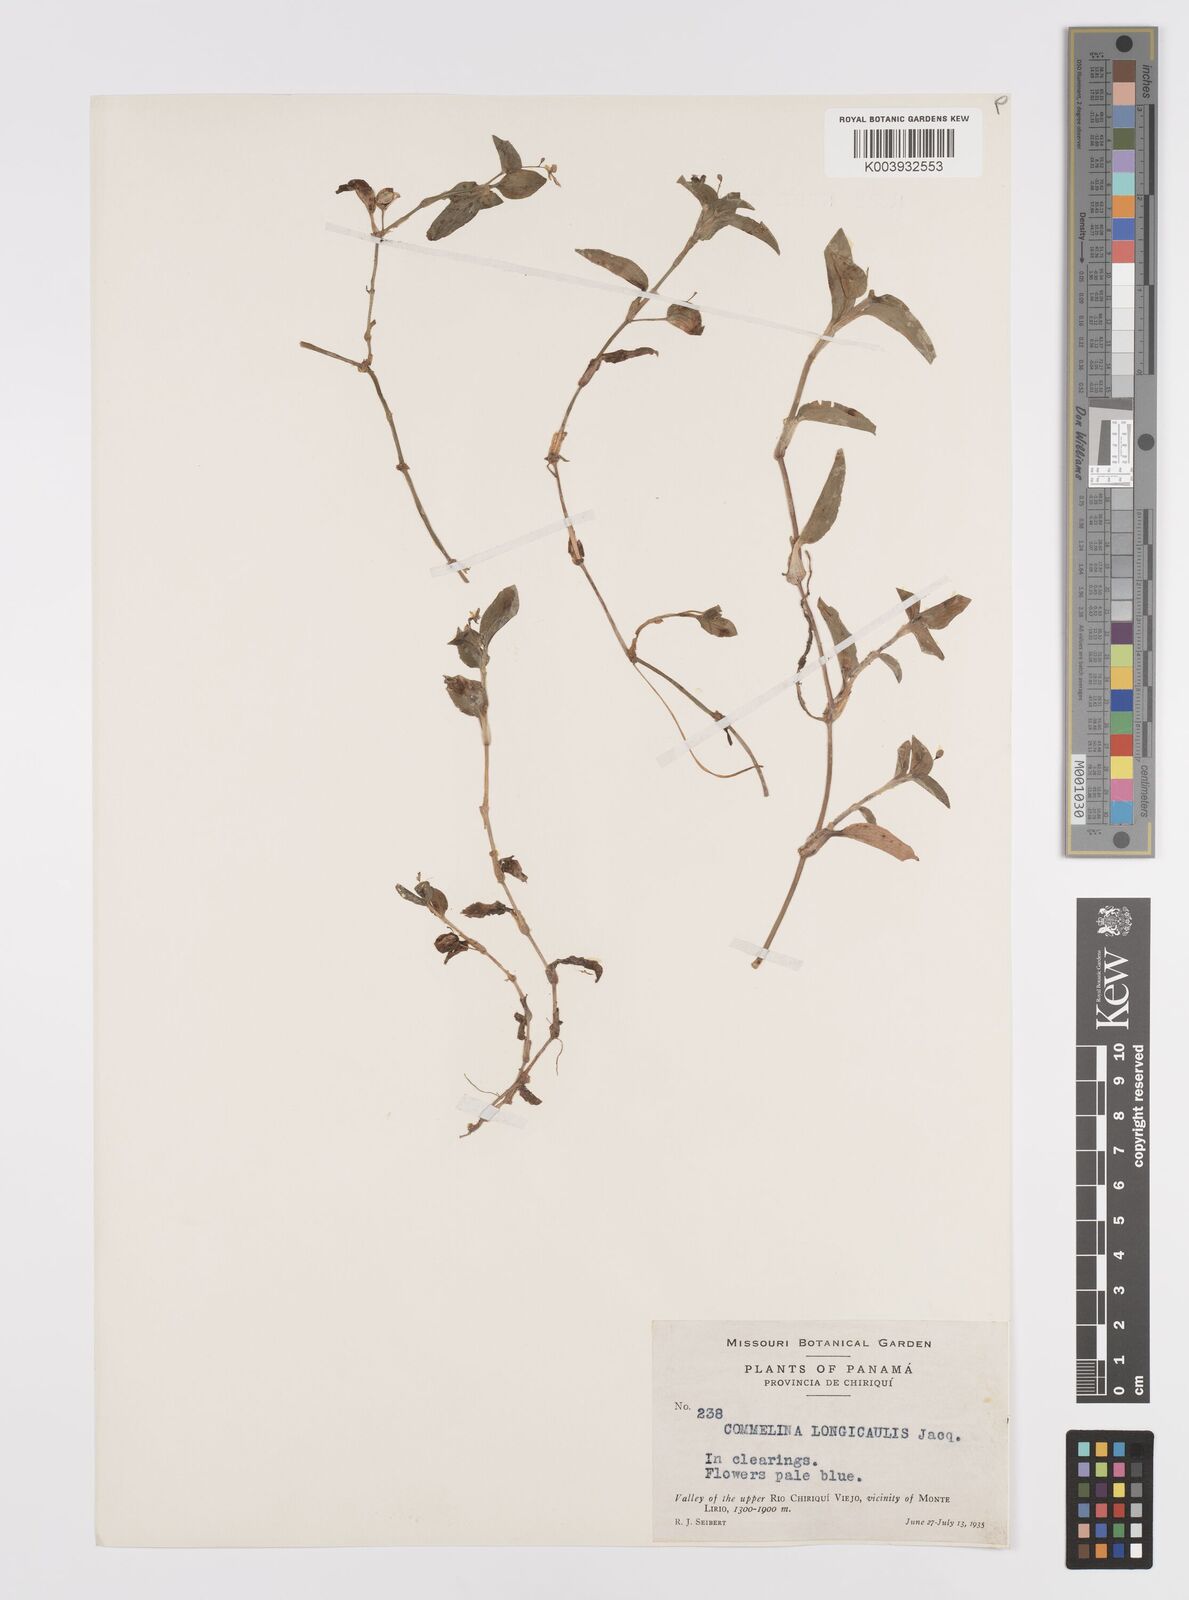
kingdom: Plantae
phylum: Tracheophyta
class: Liliopsida
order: Commelinales
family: Commelinaceae
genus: Commelina
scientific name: Commelina diffusa
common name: Climbing dayflower
